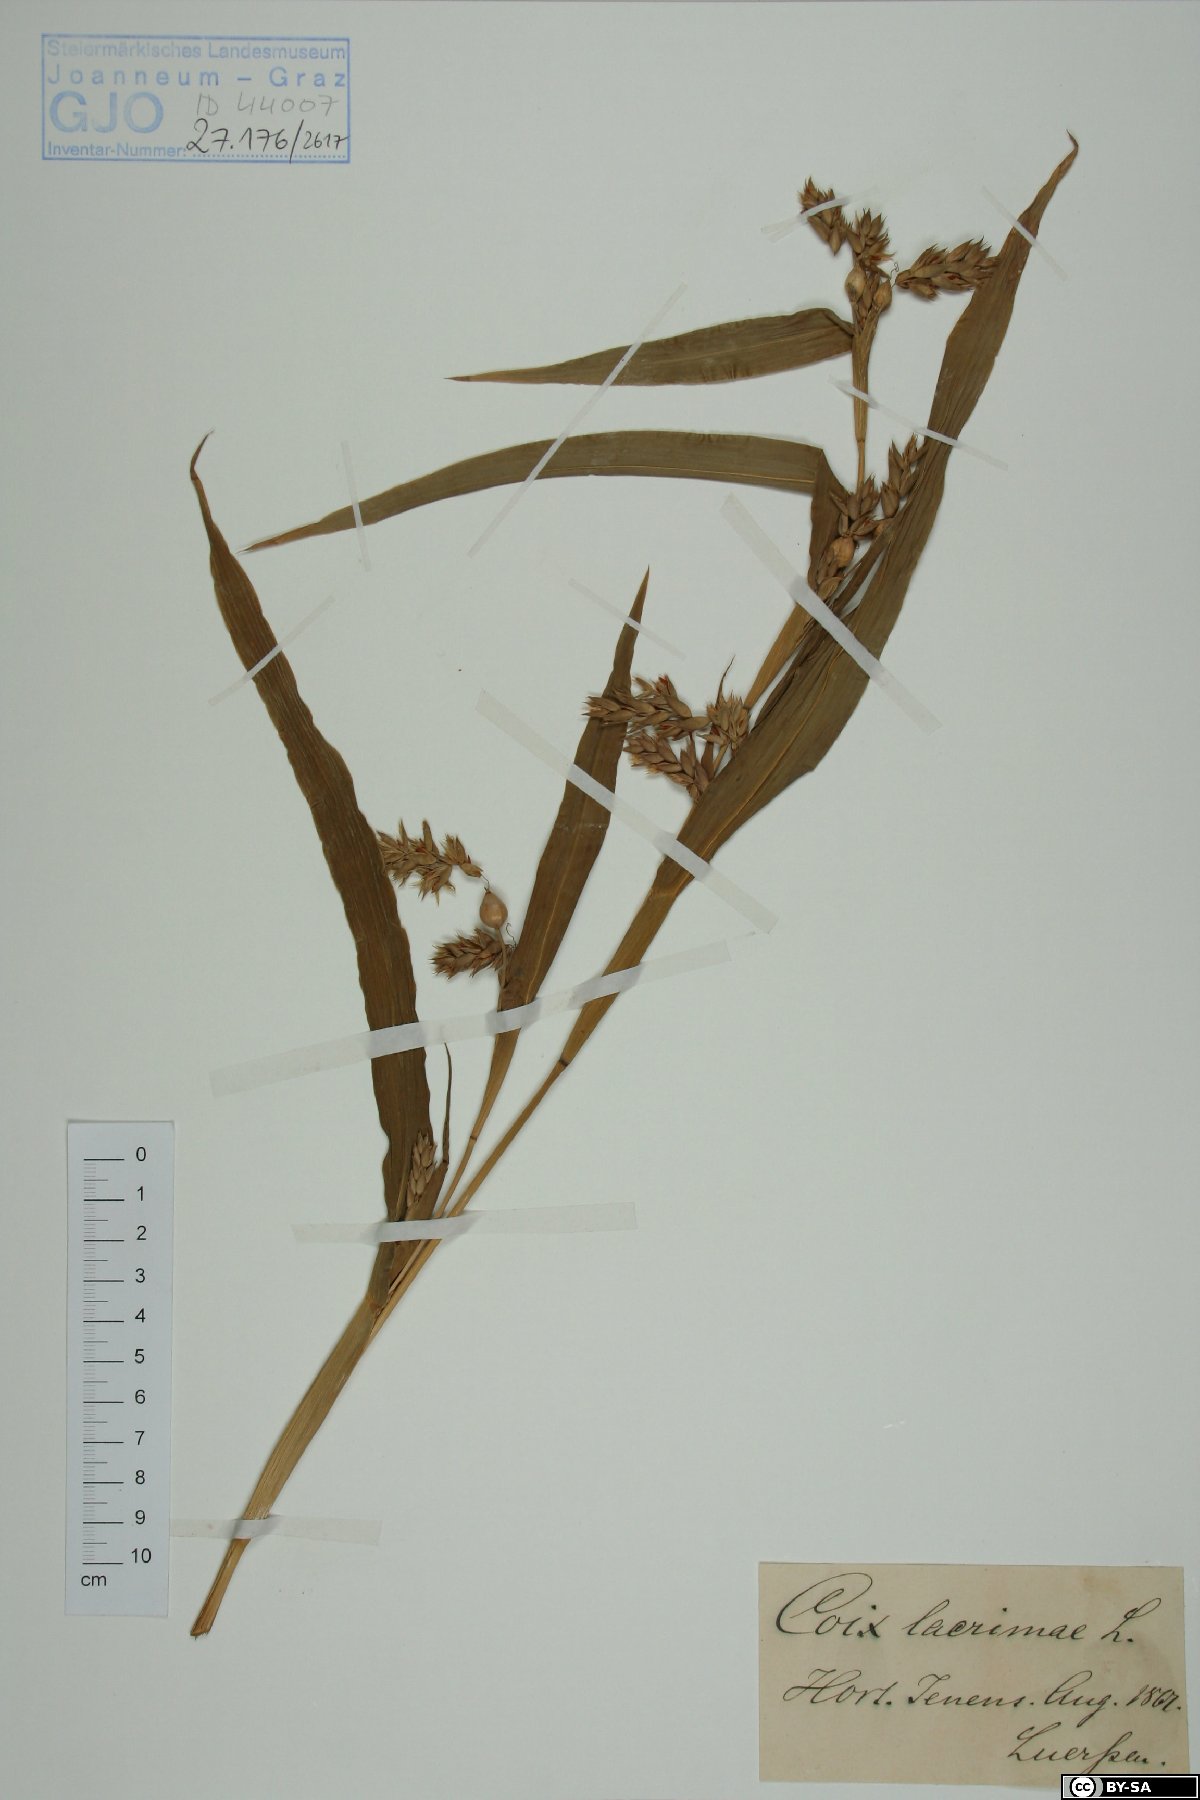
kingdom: Plantae
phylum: Tracheophyta
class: Liliopsida
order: Poales
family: Poaceae
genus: Coix
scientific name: Coix lacryma-jobi
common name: Job's tears
